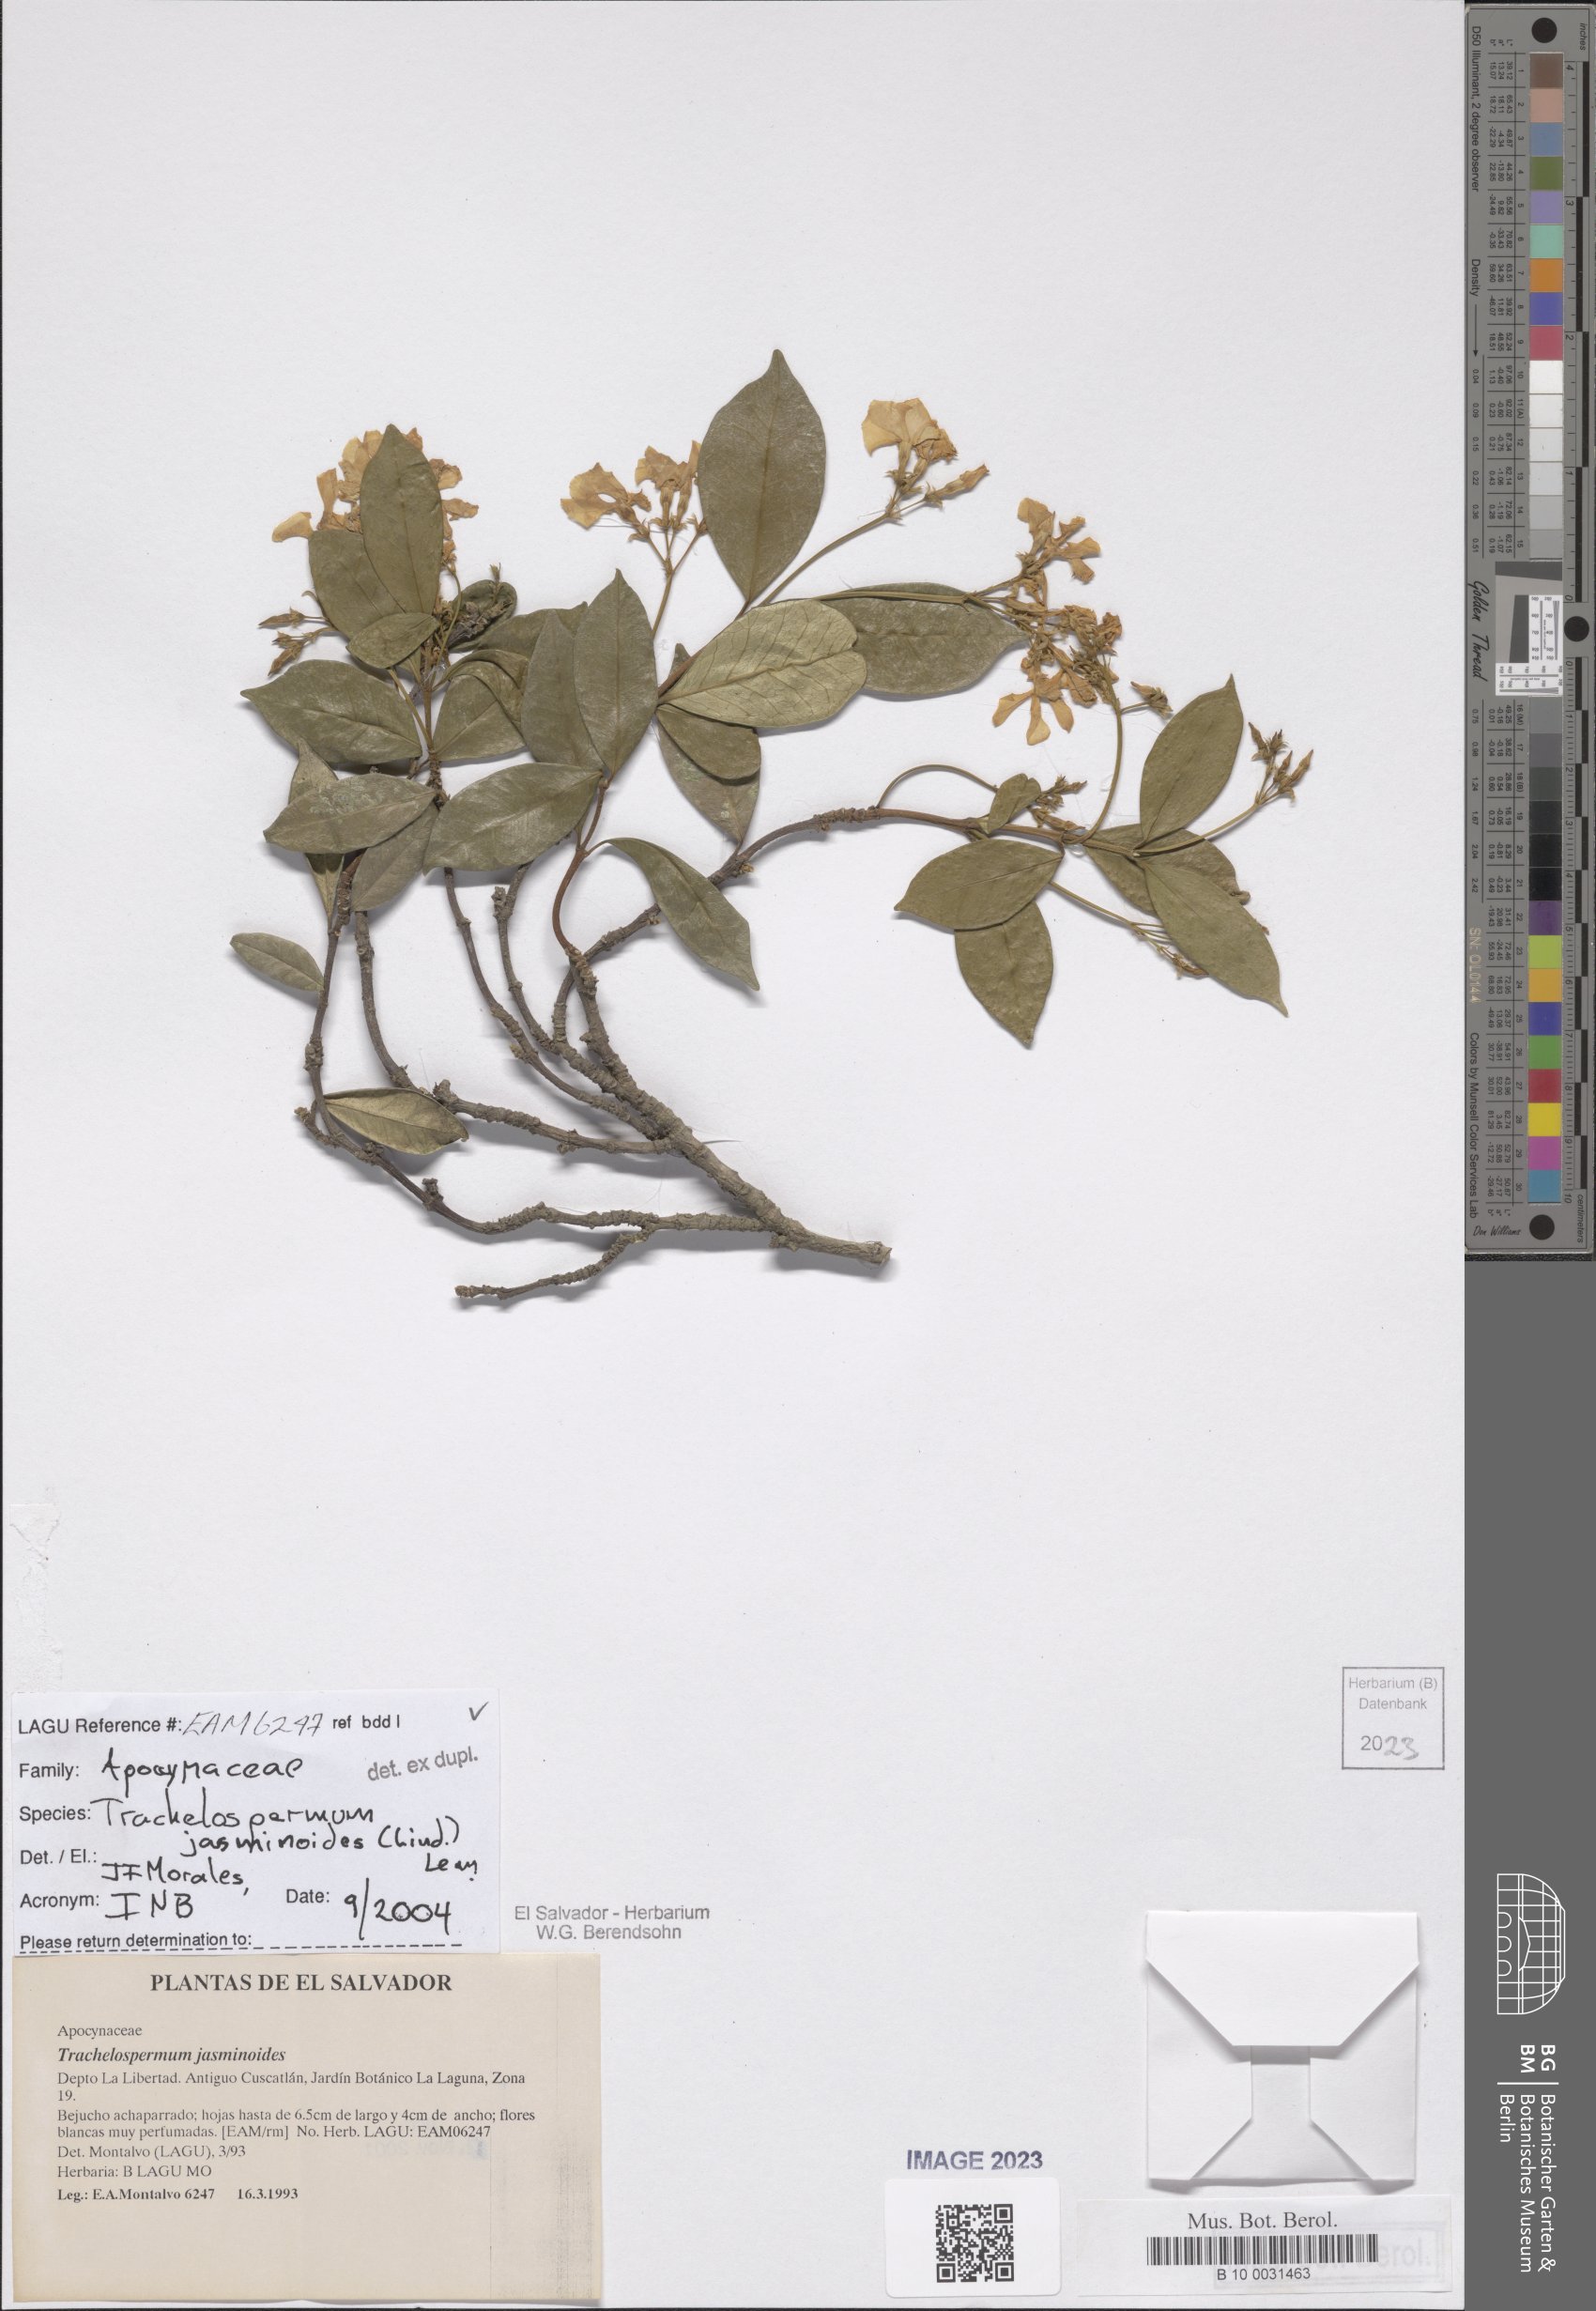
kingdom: Plantae
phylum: Tracheophyta
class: Magnoliopsida
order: Gentianales
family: Apocynaceae
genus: Trachelospermum
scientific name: Trachelospermum jasminoides
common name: Confederate jasmine
